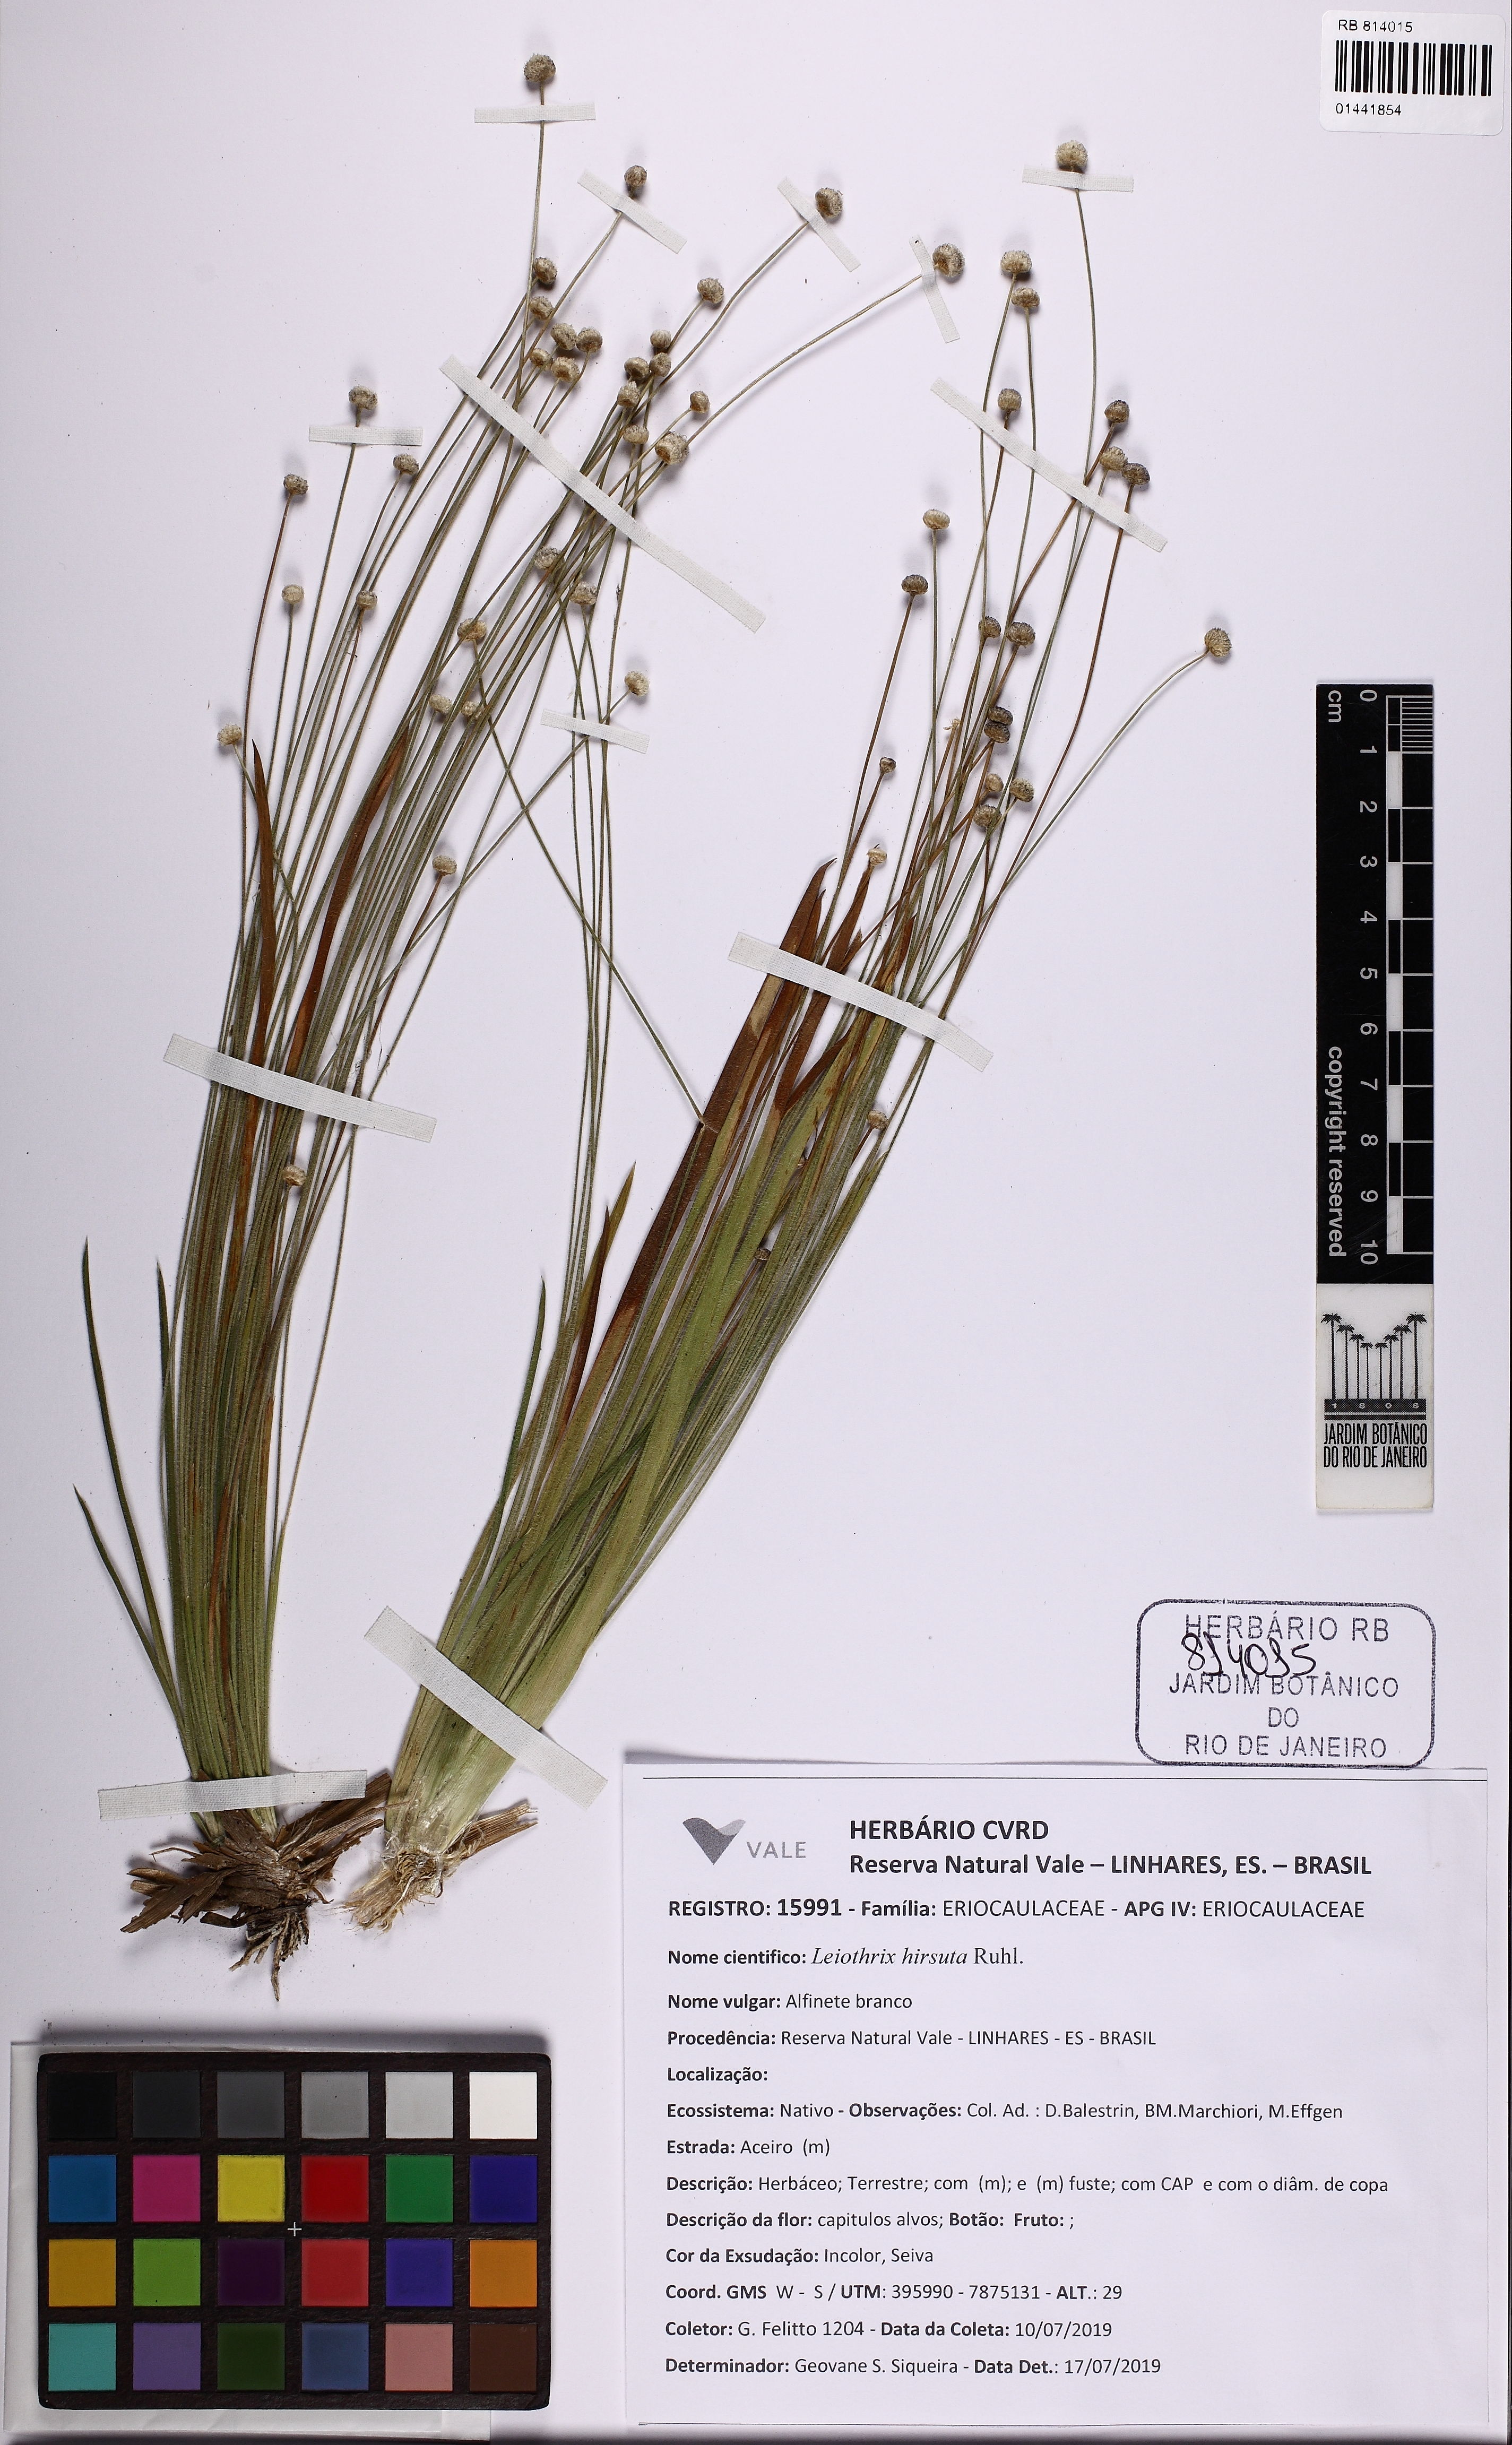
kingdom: Plantae
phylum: Tracheophyta
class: Liliopsida
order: Poales
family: Eriocaulaceae
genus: Leiothrix
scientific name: Leiothrix hirsuta
